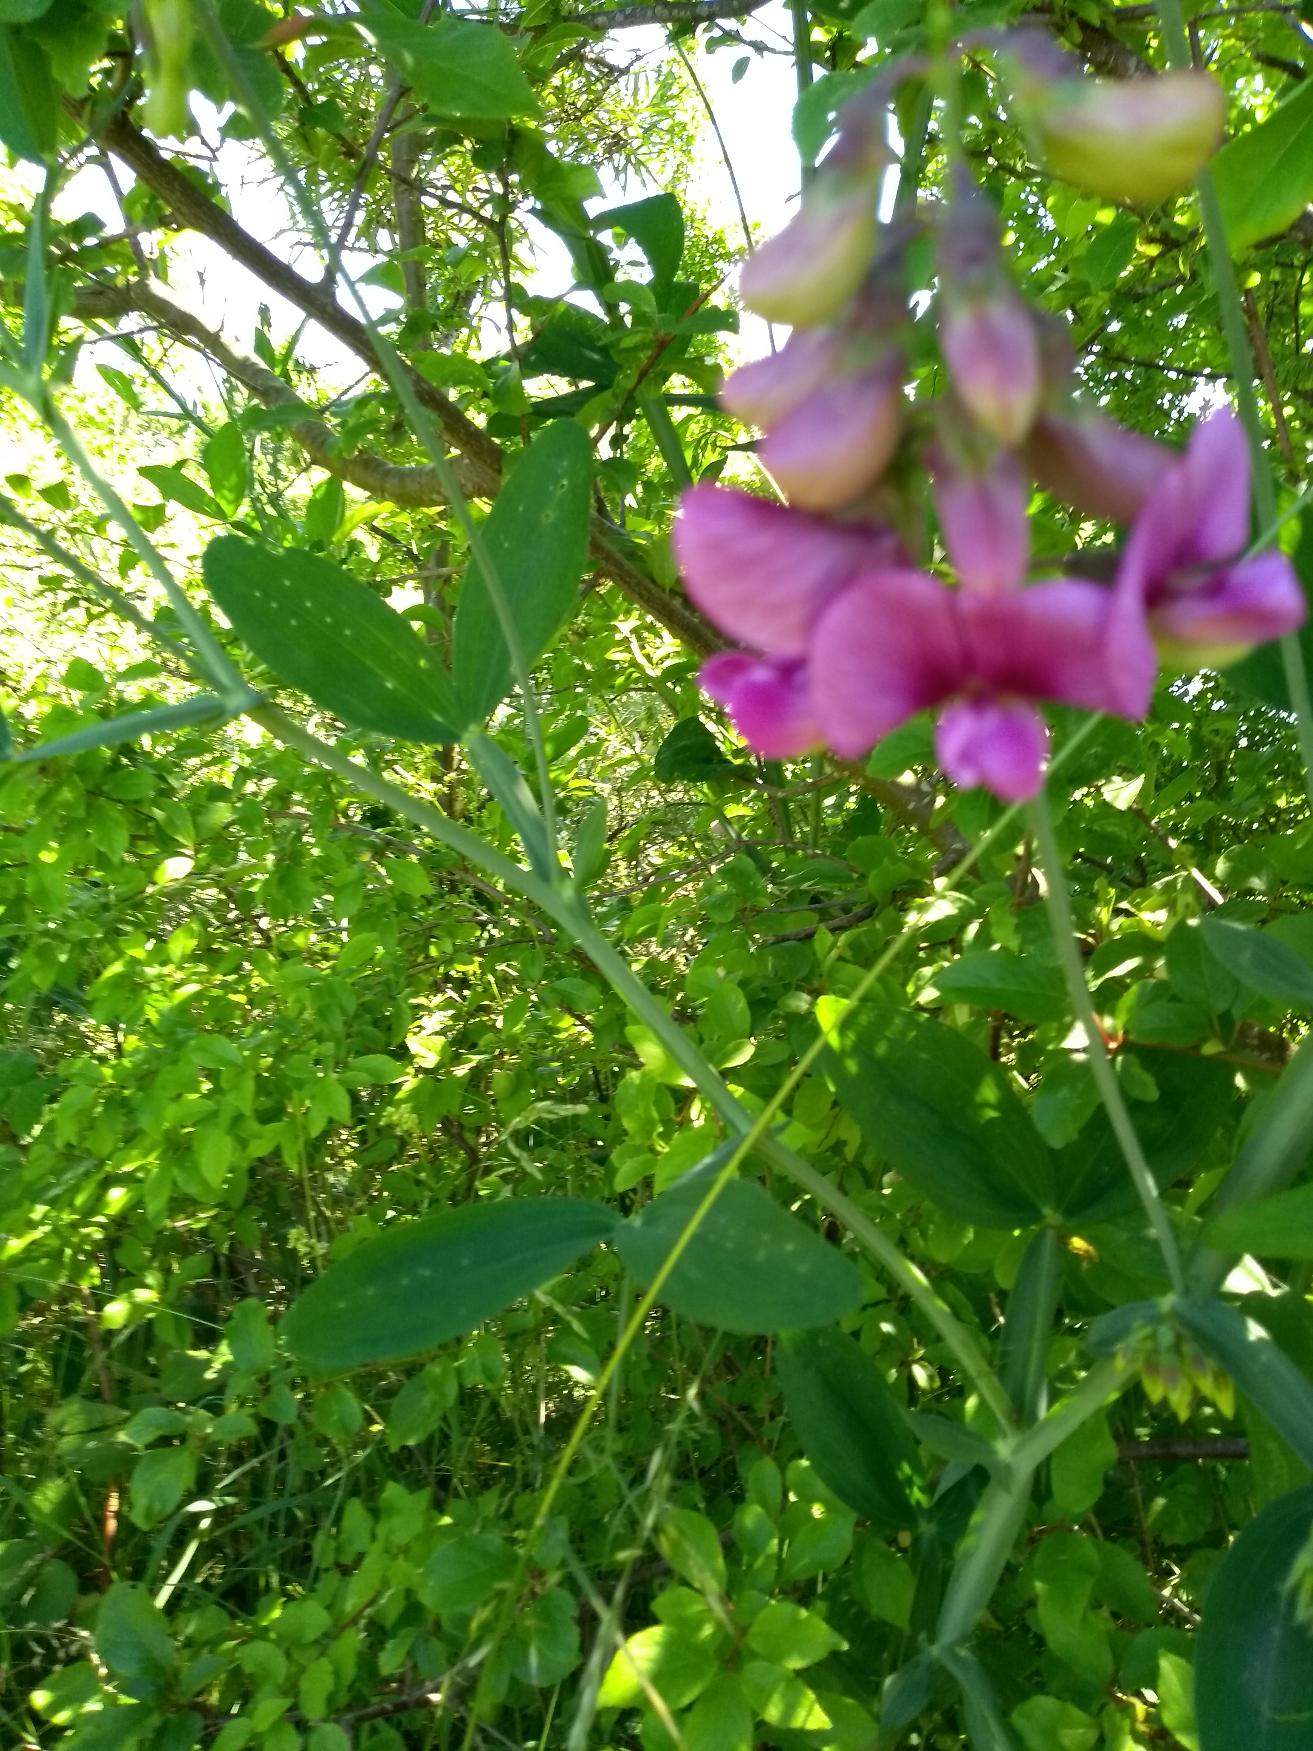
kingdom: Plantae
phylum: Tracheophyta
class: Magnoliopsida
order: Fabales
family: Fabaceae
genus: Lathyrus
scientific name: Lathyrus latifolius
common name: Flerårig ærteblomst
